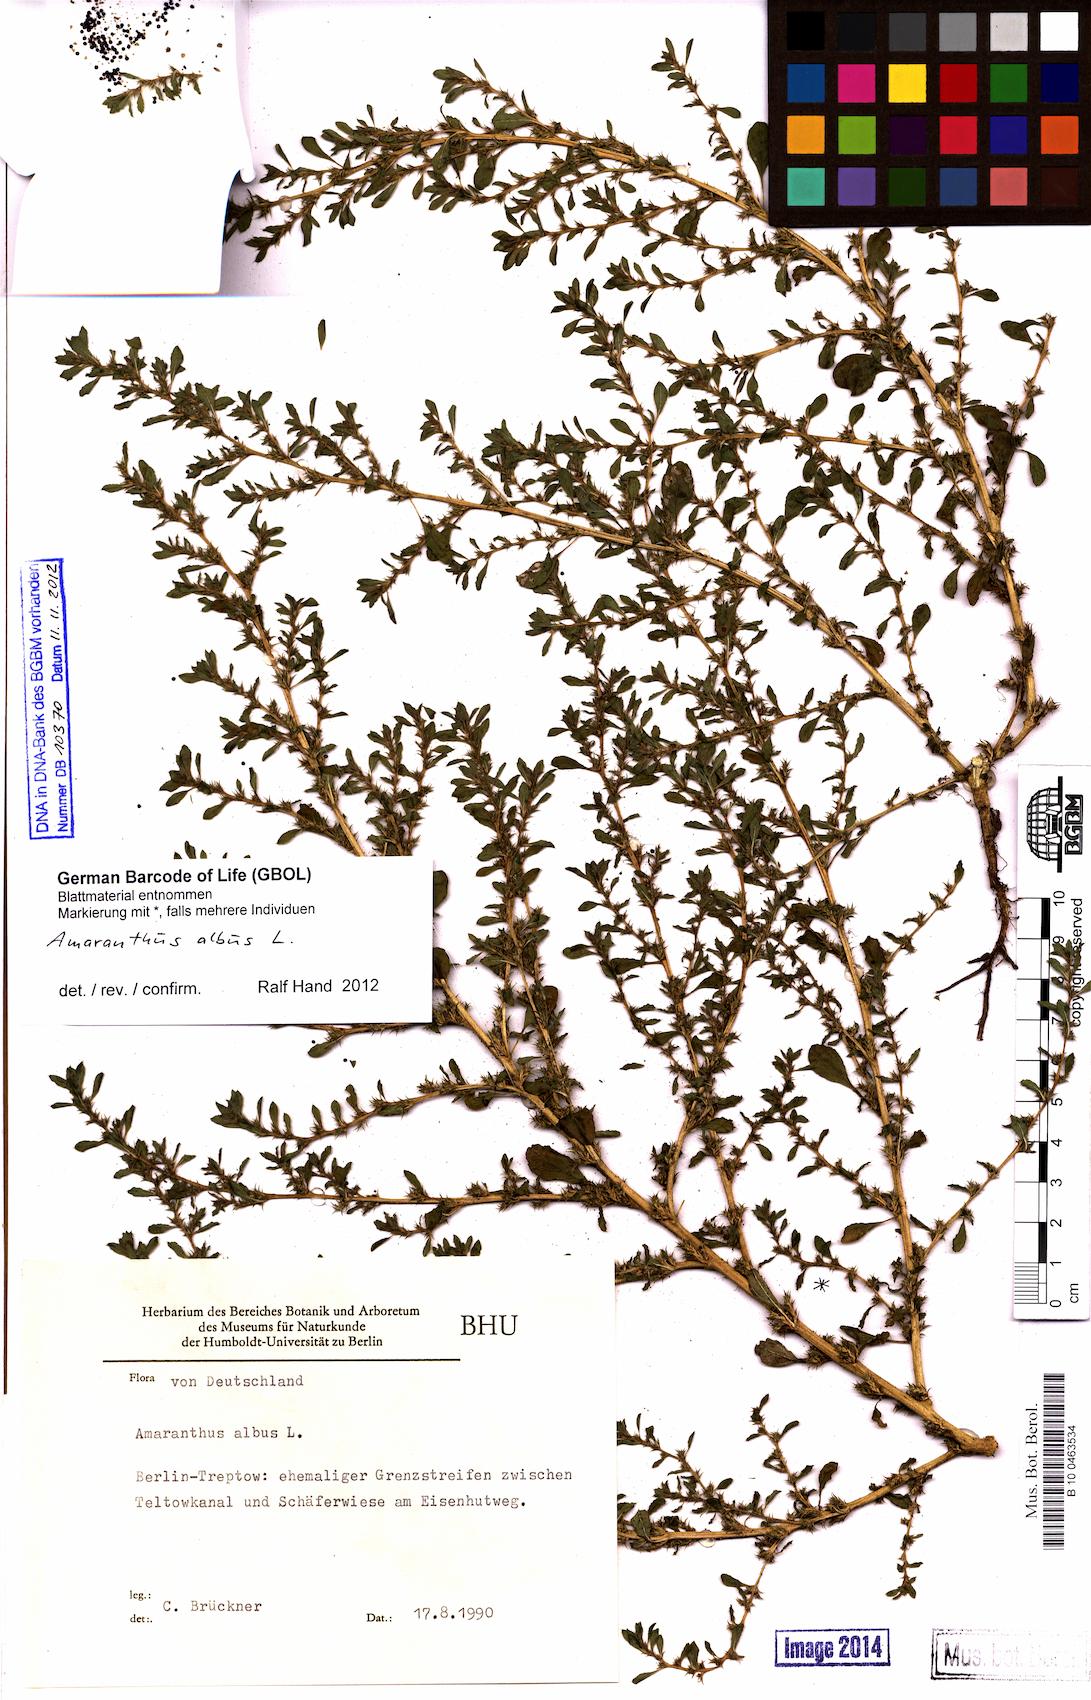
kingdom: Plantae
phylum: Tracheophyta
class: Magnoliopsida
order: Caryophyllales
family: Amaranthaceae
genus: Amaranthus
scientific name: Amaranthus albus
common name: White pigweed
